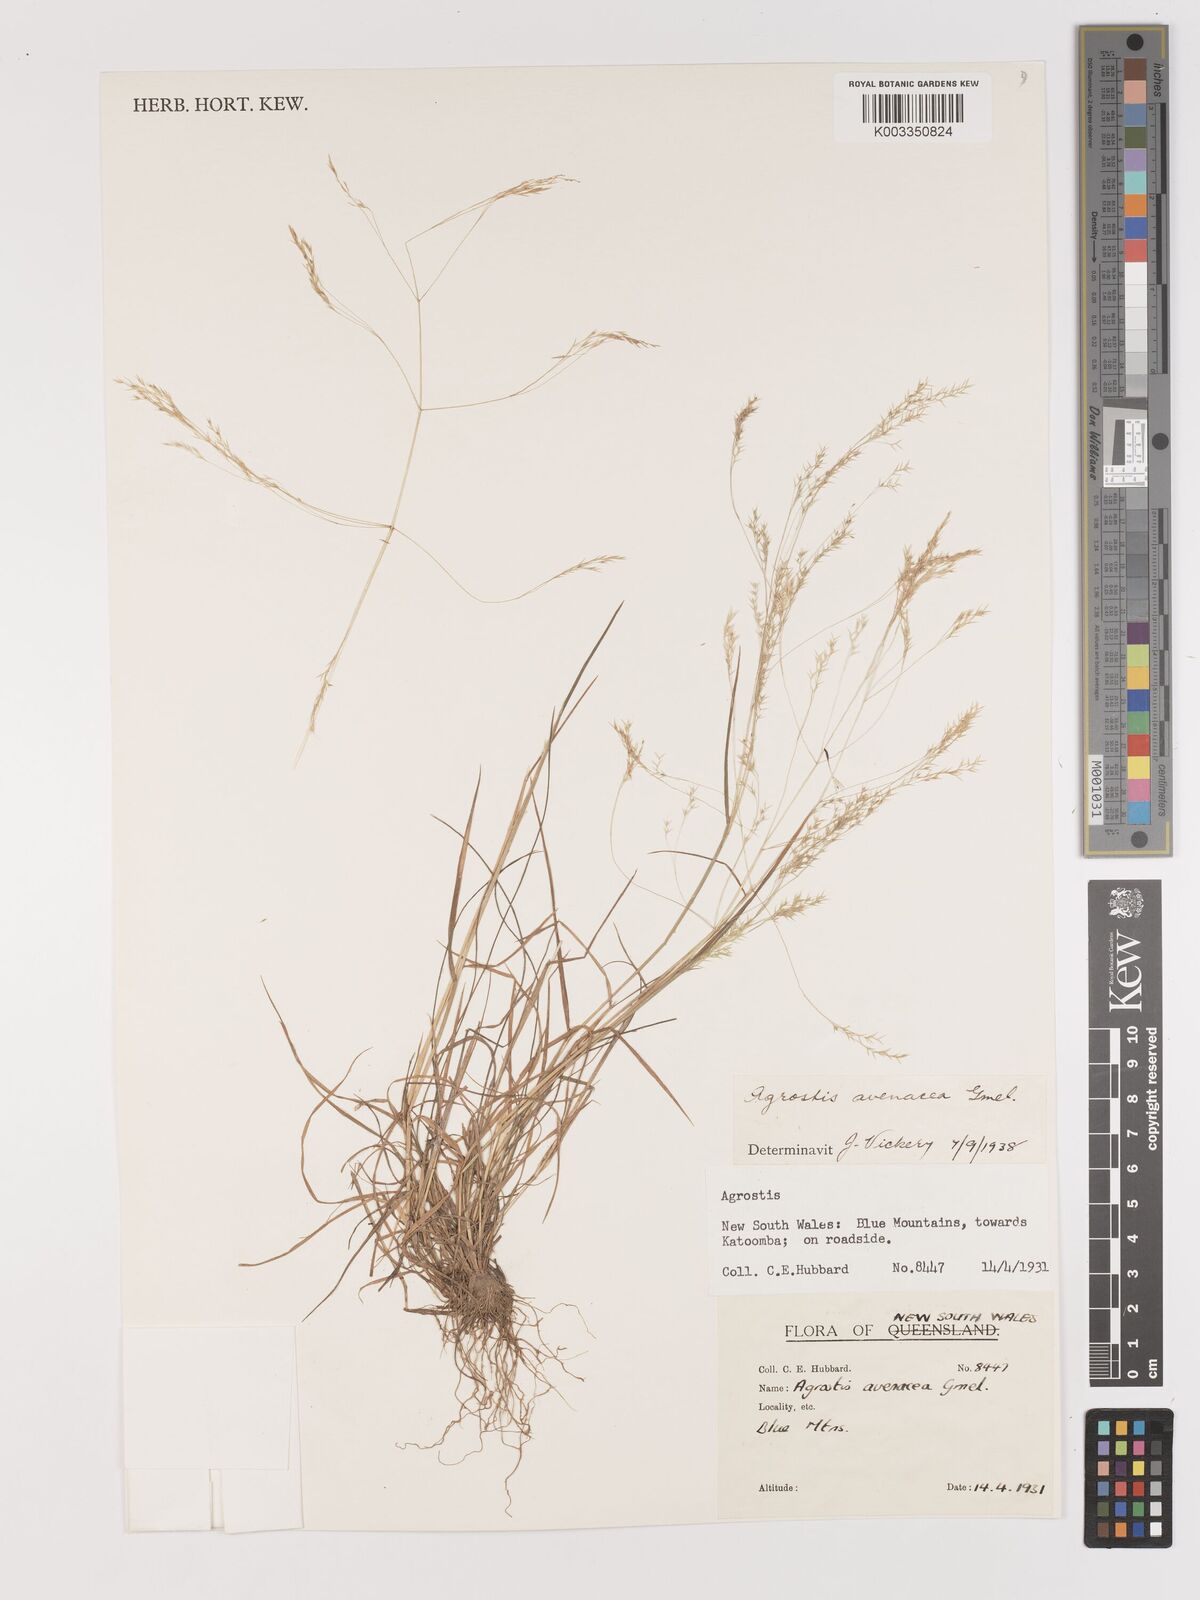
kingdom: Plantae
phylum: Tracheophyta
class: Liliopsida
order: Poales
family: Poaceae
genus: Lachnagrostis
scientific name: Lachnagrostis filiformis
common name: Bentgrass
